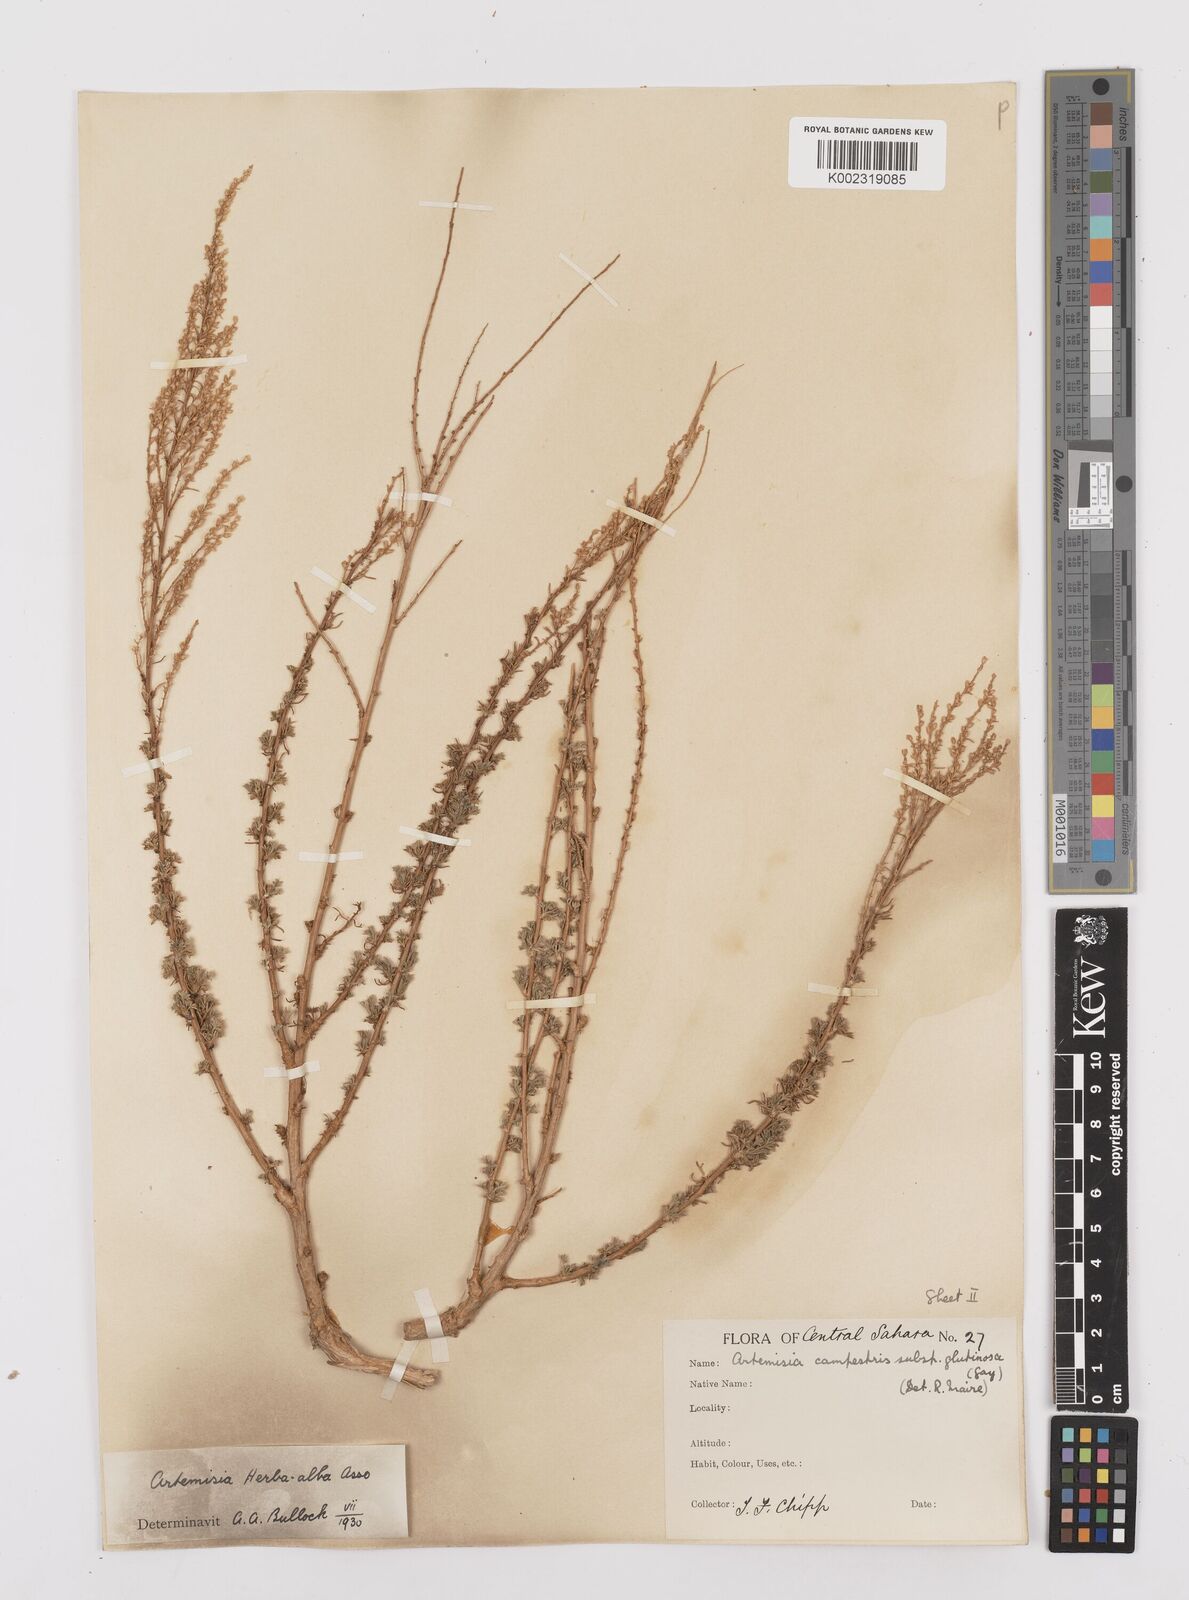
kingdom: Plantae
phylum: Tracheophyta
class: Magnoliopsida
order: Asterales
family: Asteraceae
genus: Artemisia
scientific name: Artemisia herba-alba
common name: White wormwood
